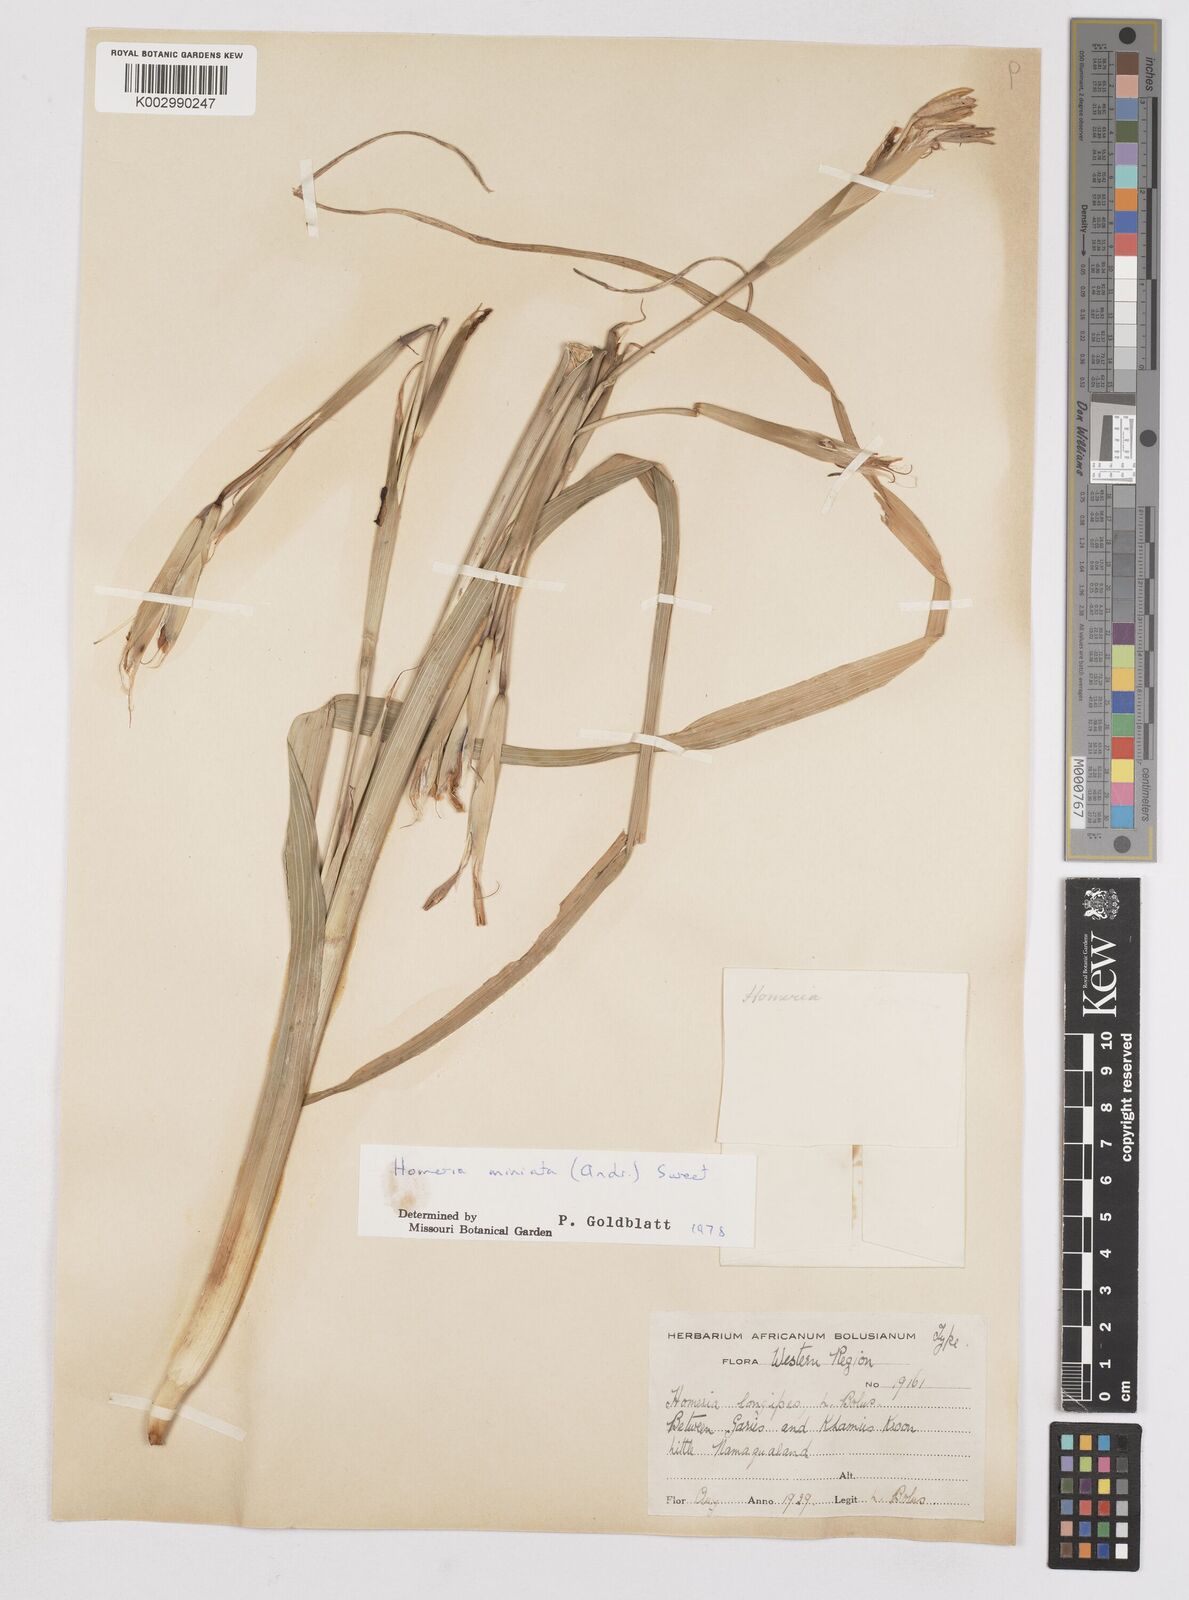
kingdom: Plantae
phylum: Tracheophyta
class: Liliopsida
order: Asparagales
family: Iridaceae
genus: Moraea
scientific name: Moraea miniata
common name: Two-leaf cape-tulip
